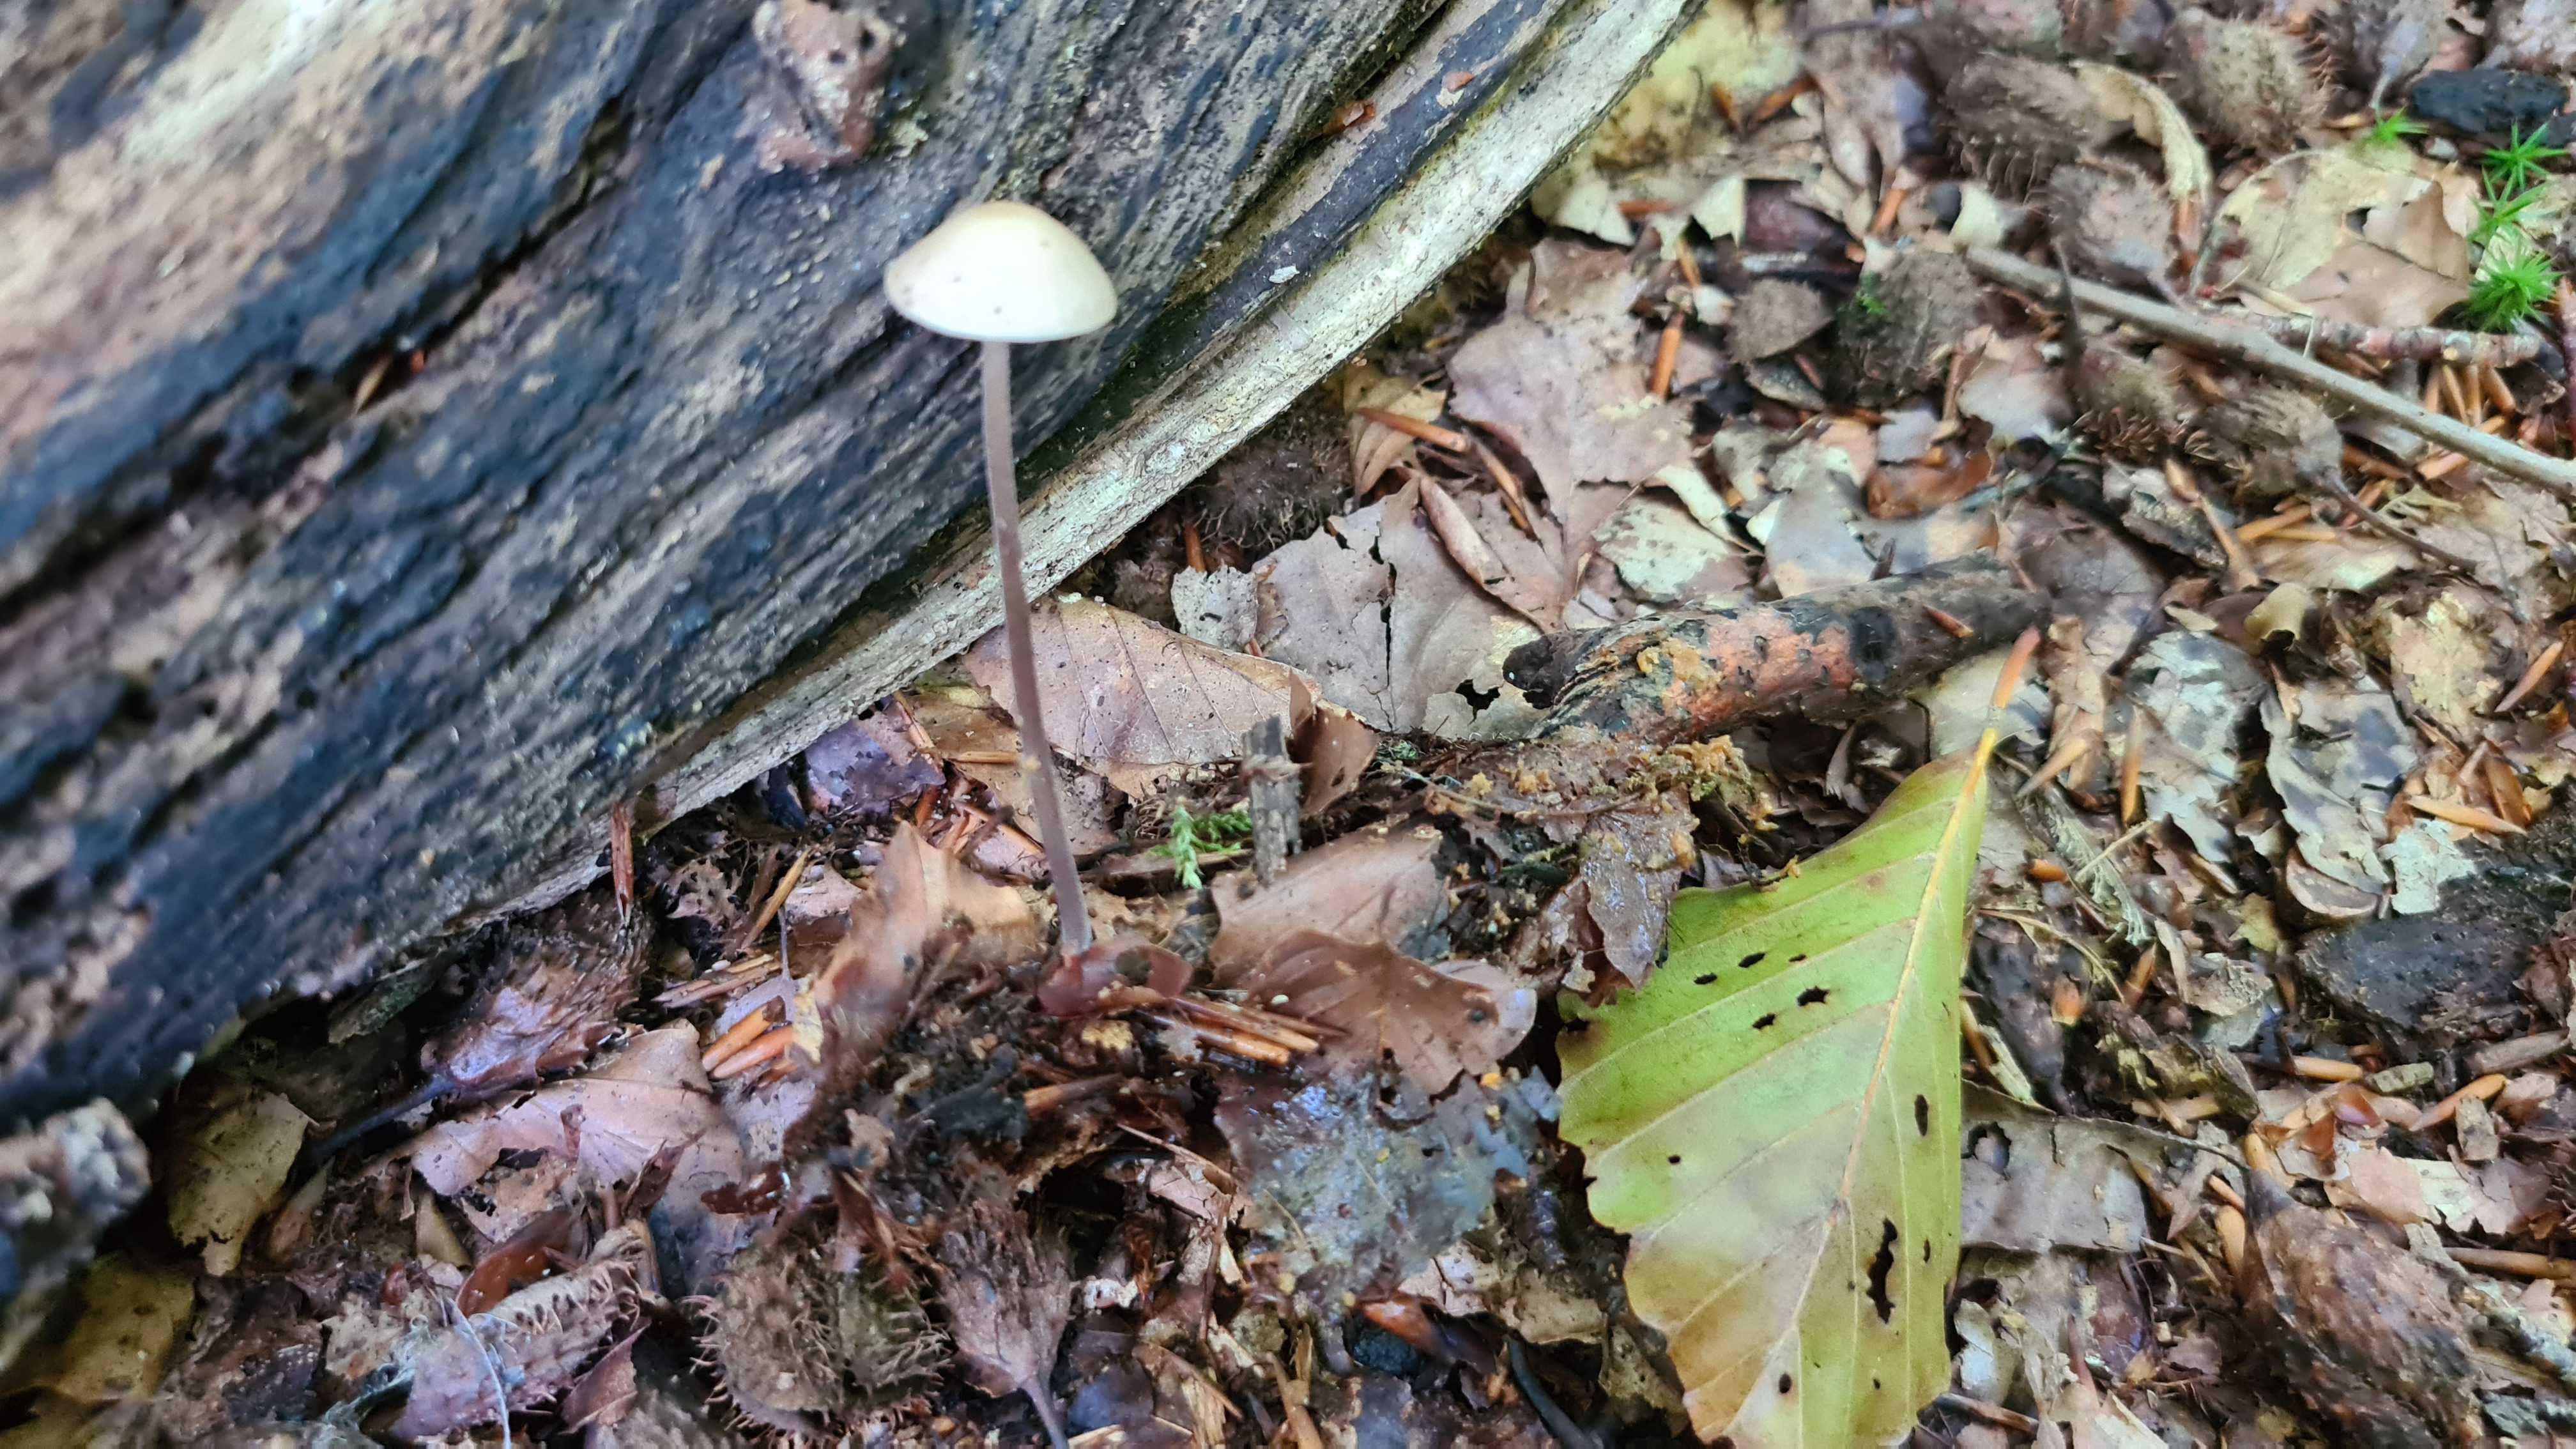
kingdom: Fungi
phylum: Basidiomycota
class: Agaricomycetes
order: Agaricales
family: Omphalotaceae
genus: Mycetinis
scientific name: Mycetinis alliaceus
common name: stor løghat
